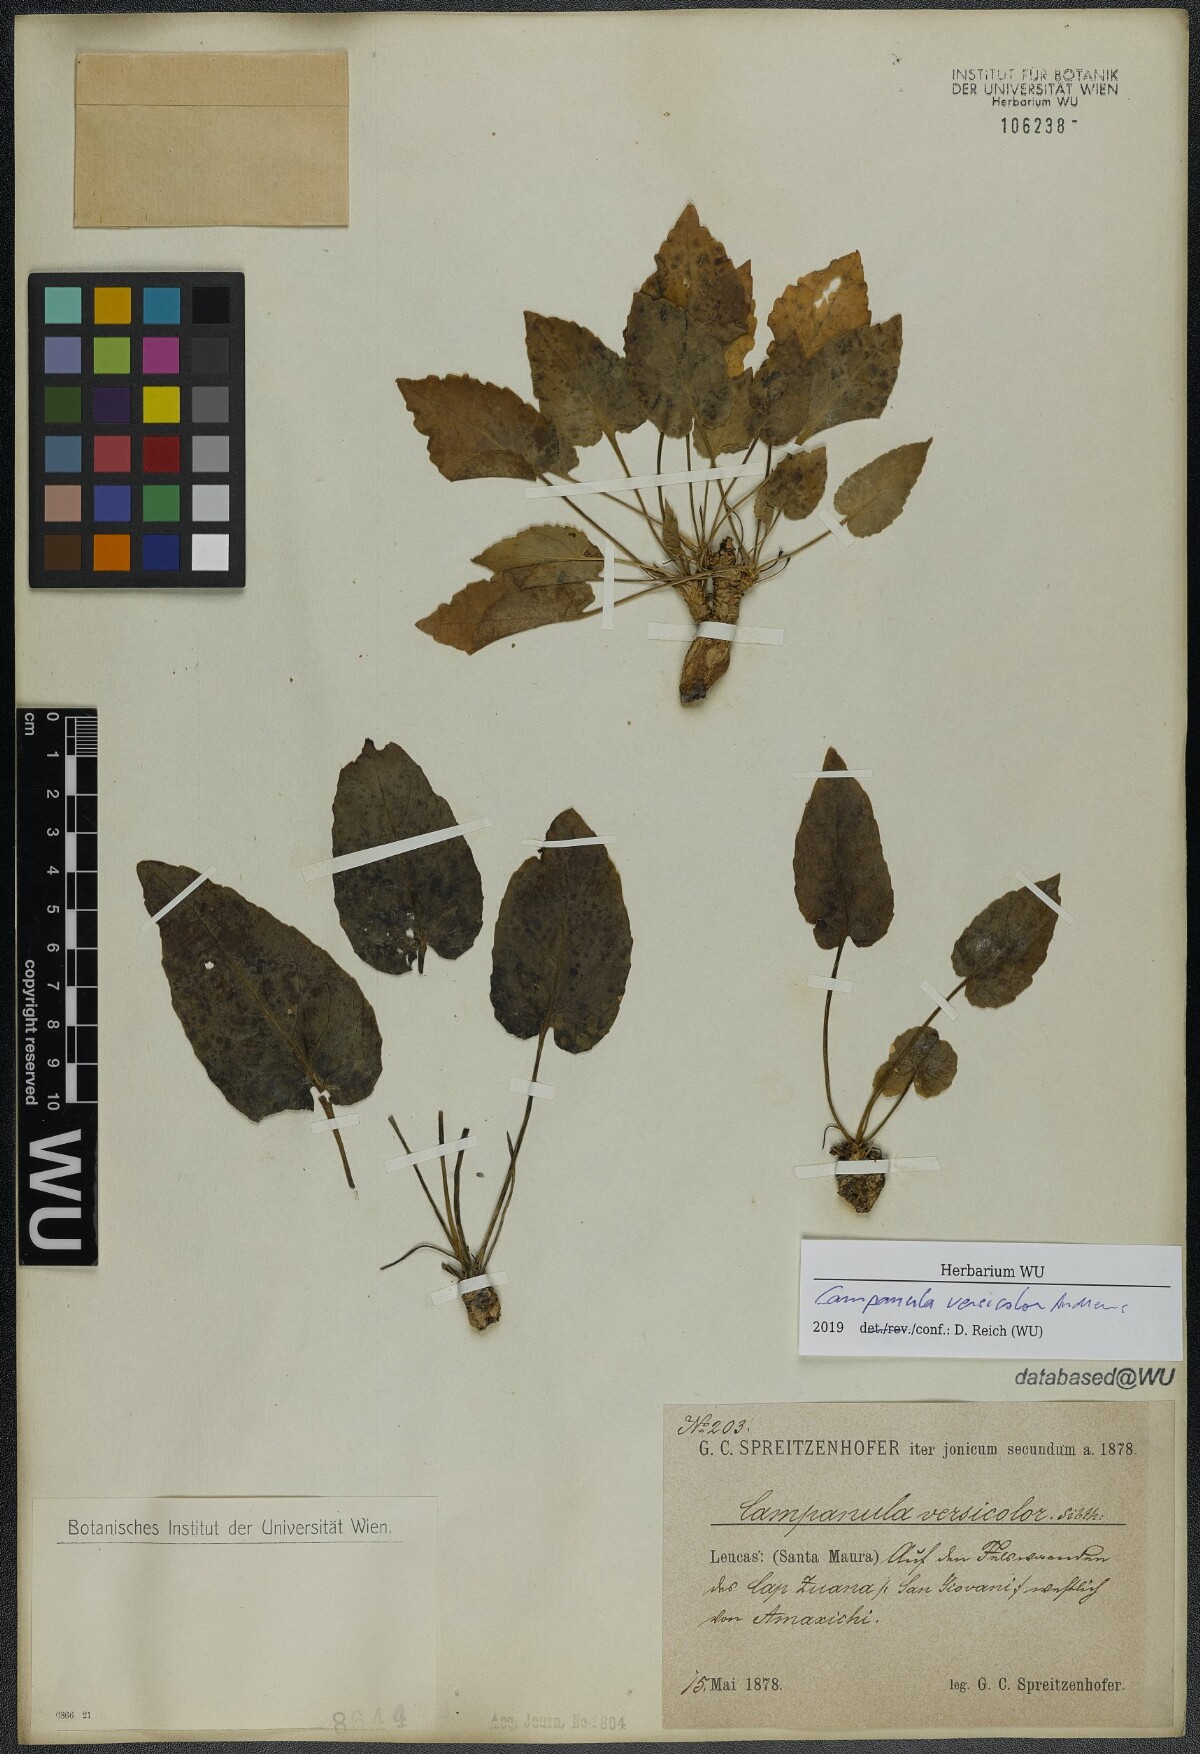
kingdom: Plantae
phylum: Tracheophyta
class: Magnoliopsida
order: Asterales
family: Campanulaceae
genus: Campanula
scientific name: Campanula versicolor
